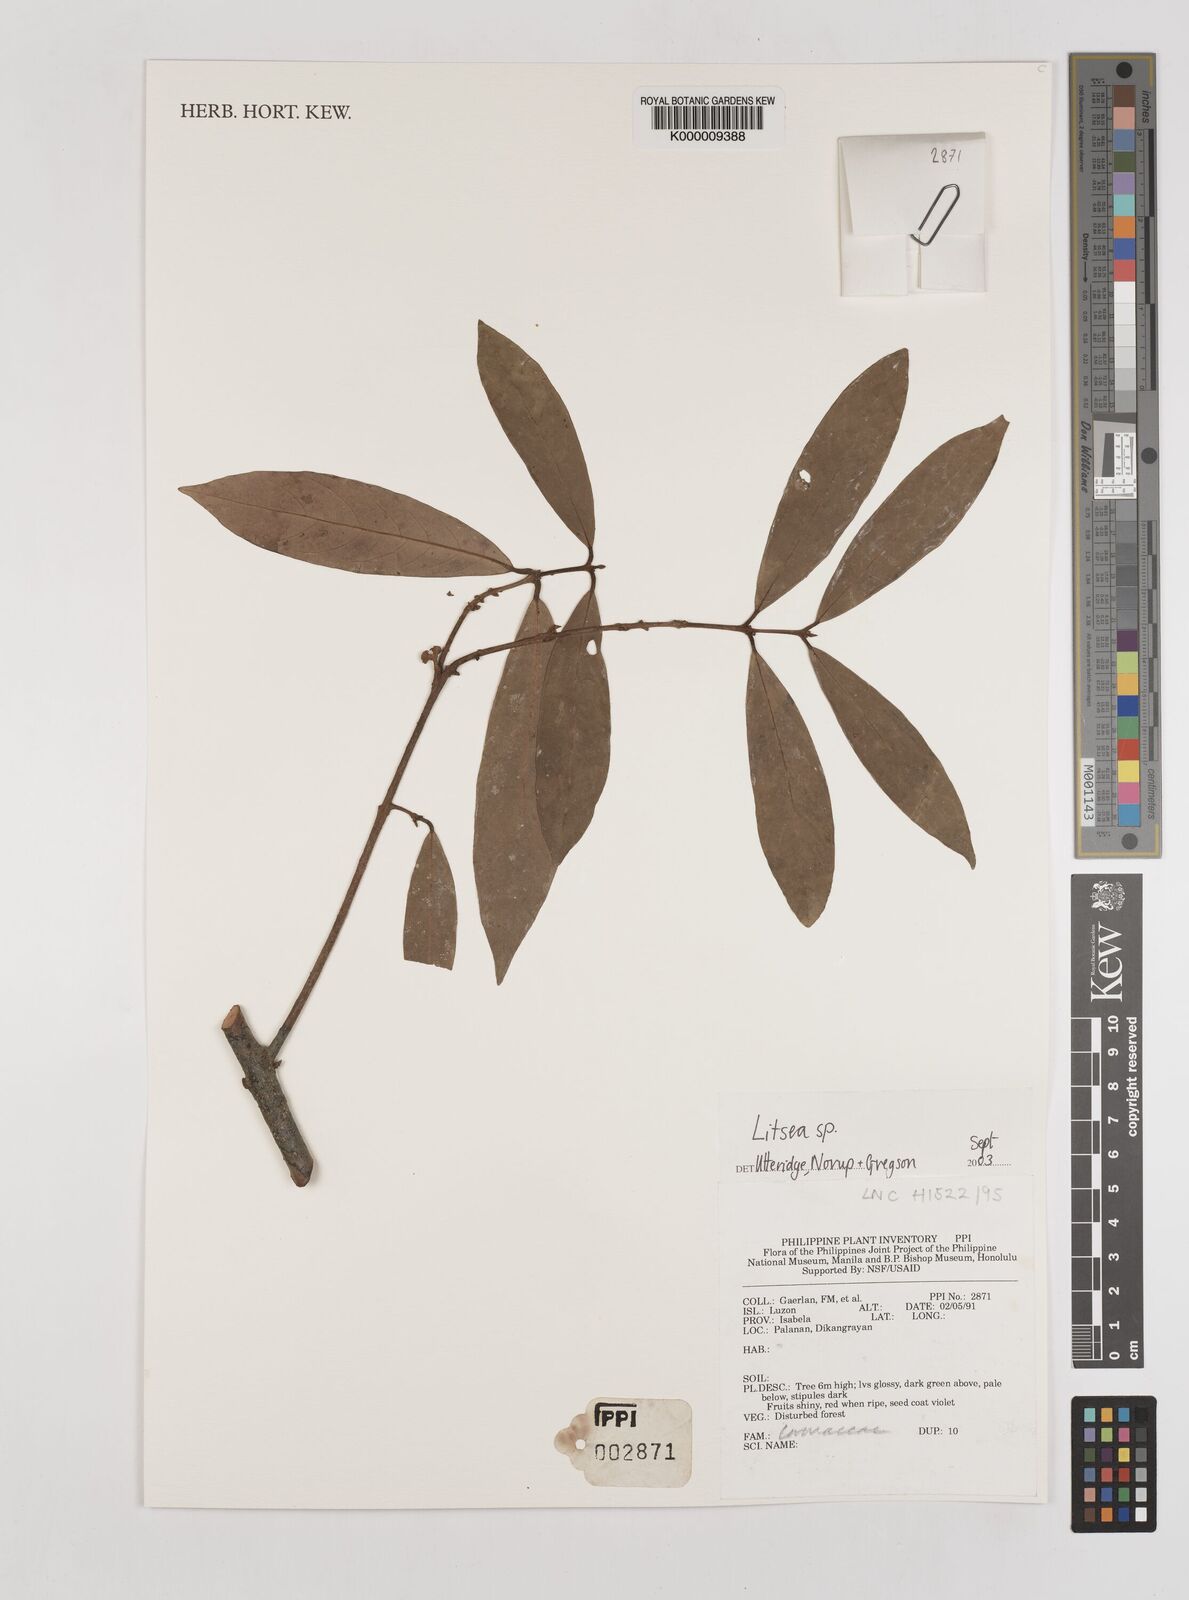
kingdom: Plantae
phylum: Tracheophyta
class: Magnoliopsida
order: Laurales
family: Lauraceae
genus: Litsea
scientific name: Litsea
